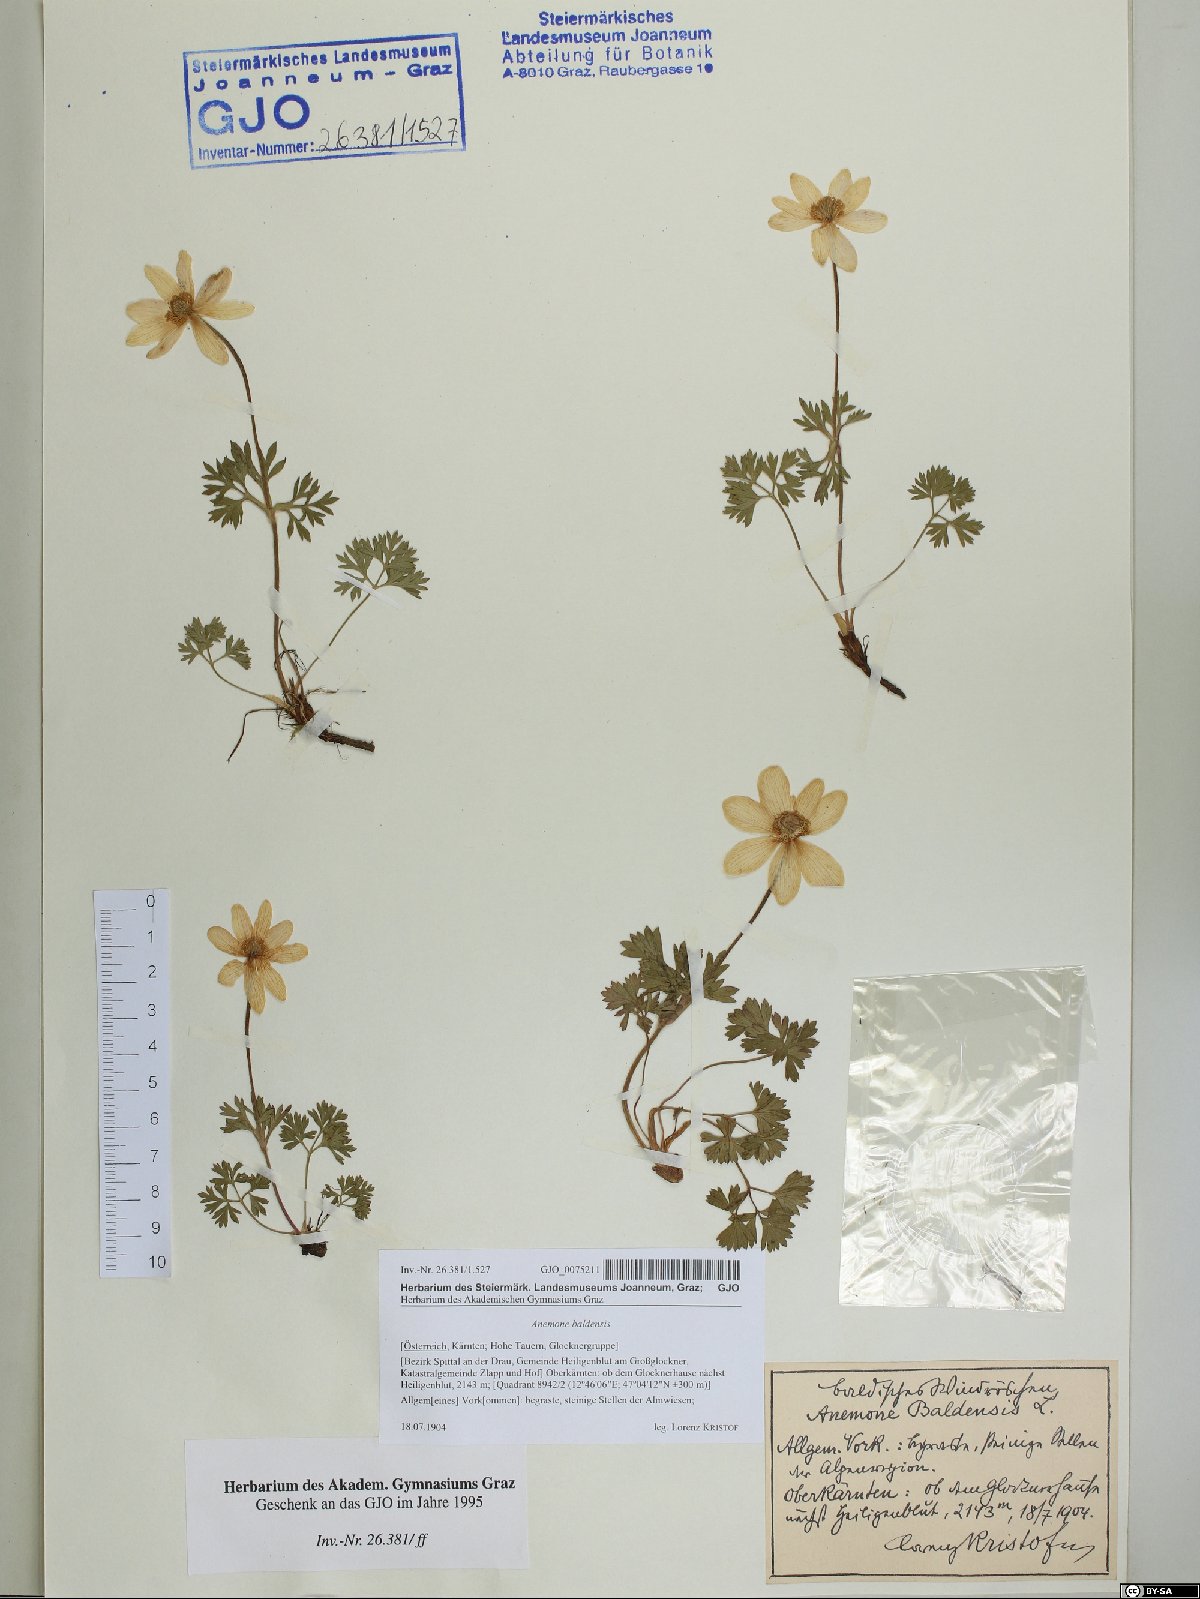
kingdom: Plantae
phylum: Tracheophyta
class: Magnoliopsida
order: Ranunculales
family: Ranunculaceae
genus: Anemone
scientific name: Anemone baldensis
